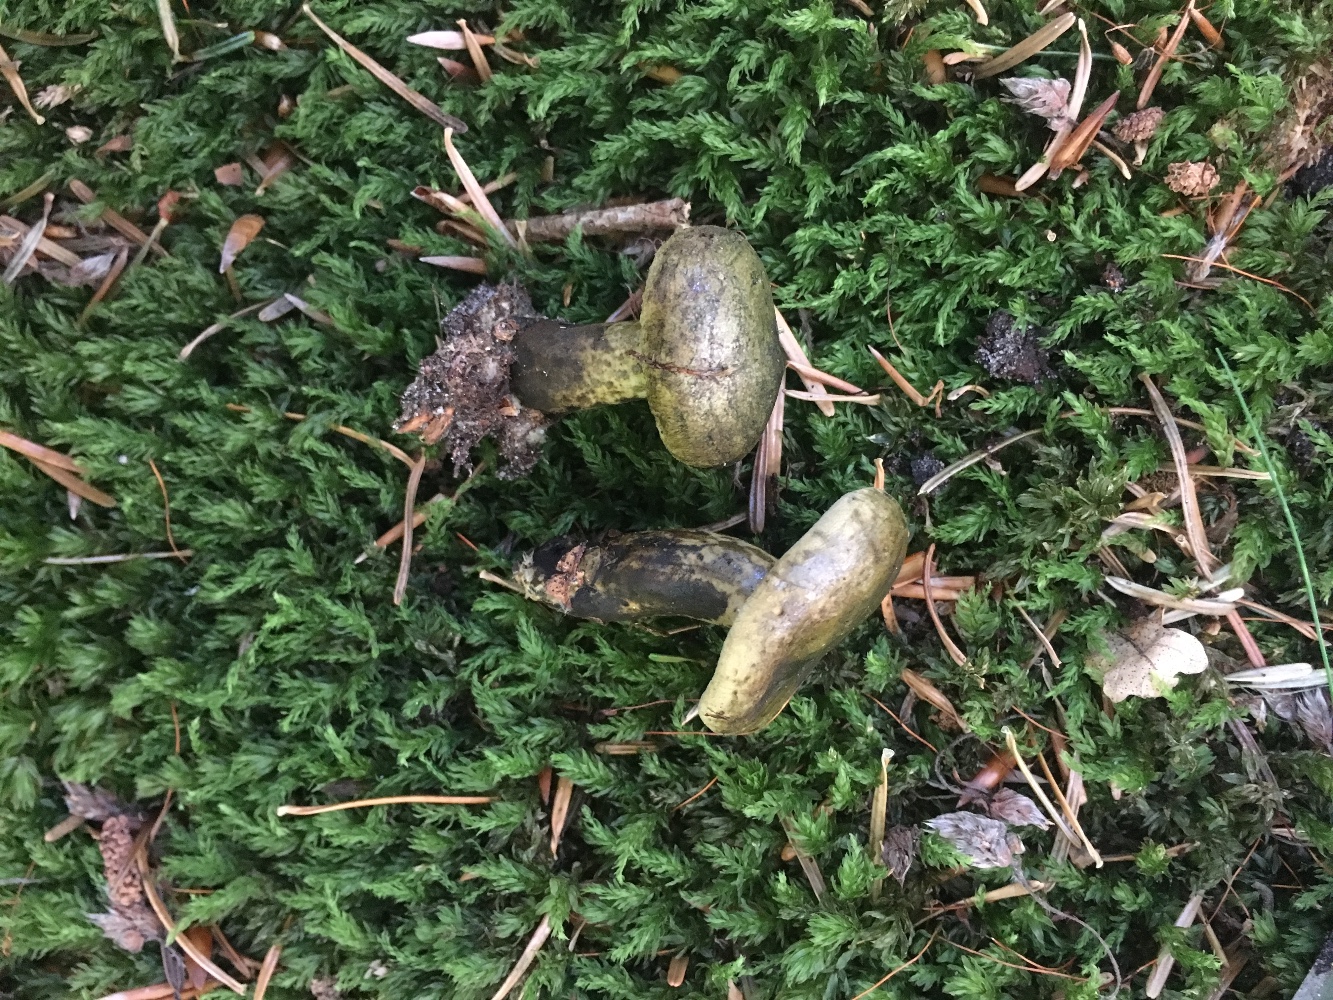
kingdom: Fungi
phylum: Basidiomycota
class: Agaricomycetes
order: Russulales
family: Russulaceae
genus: Lactarius
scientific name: Lactarius necator
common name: manddraber-mælkehat
